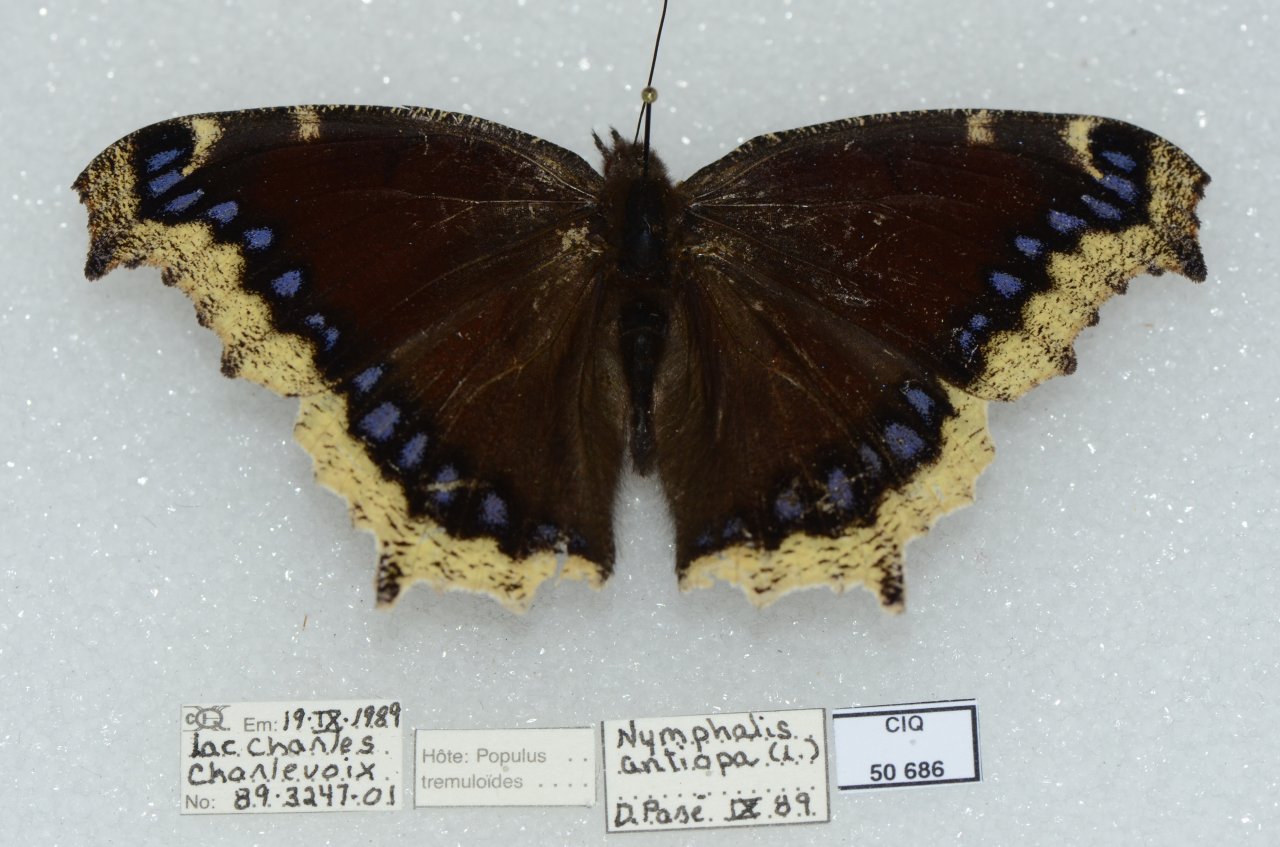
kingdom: Animalia
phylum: Arthropoda
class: Insecta
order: Lepidoptera
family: Nymphalidae
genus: Nymphalis
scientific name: Nymphalis antiopa
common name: Mourning Cloak
